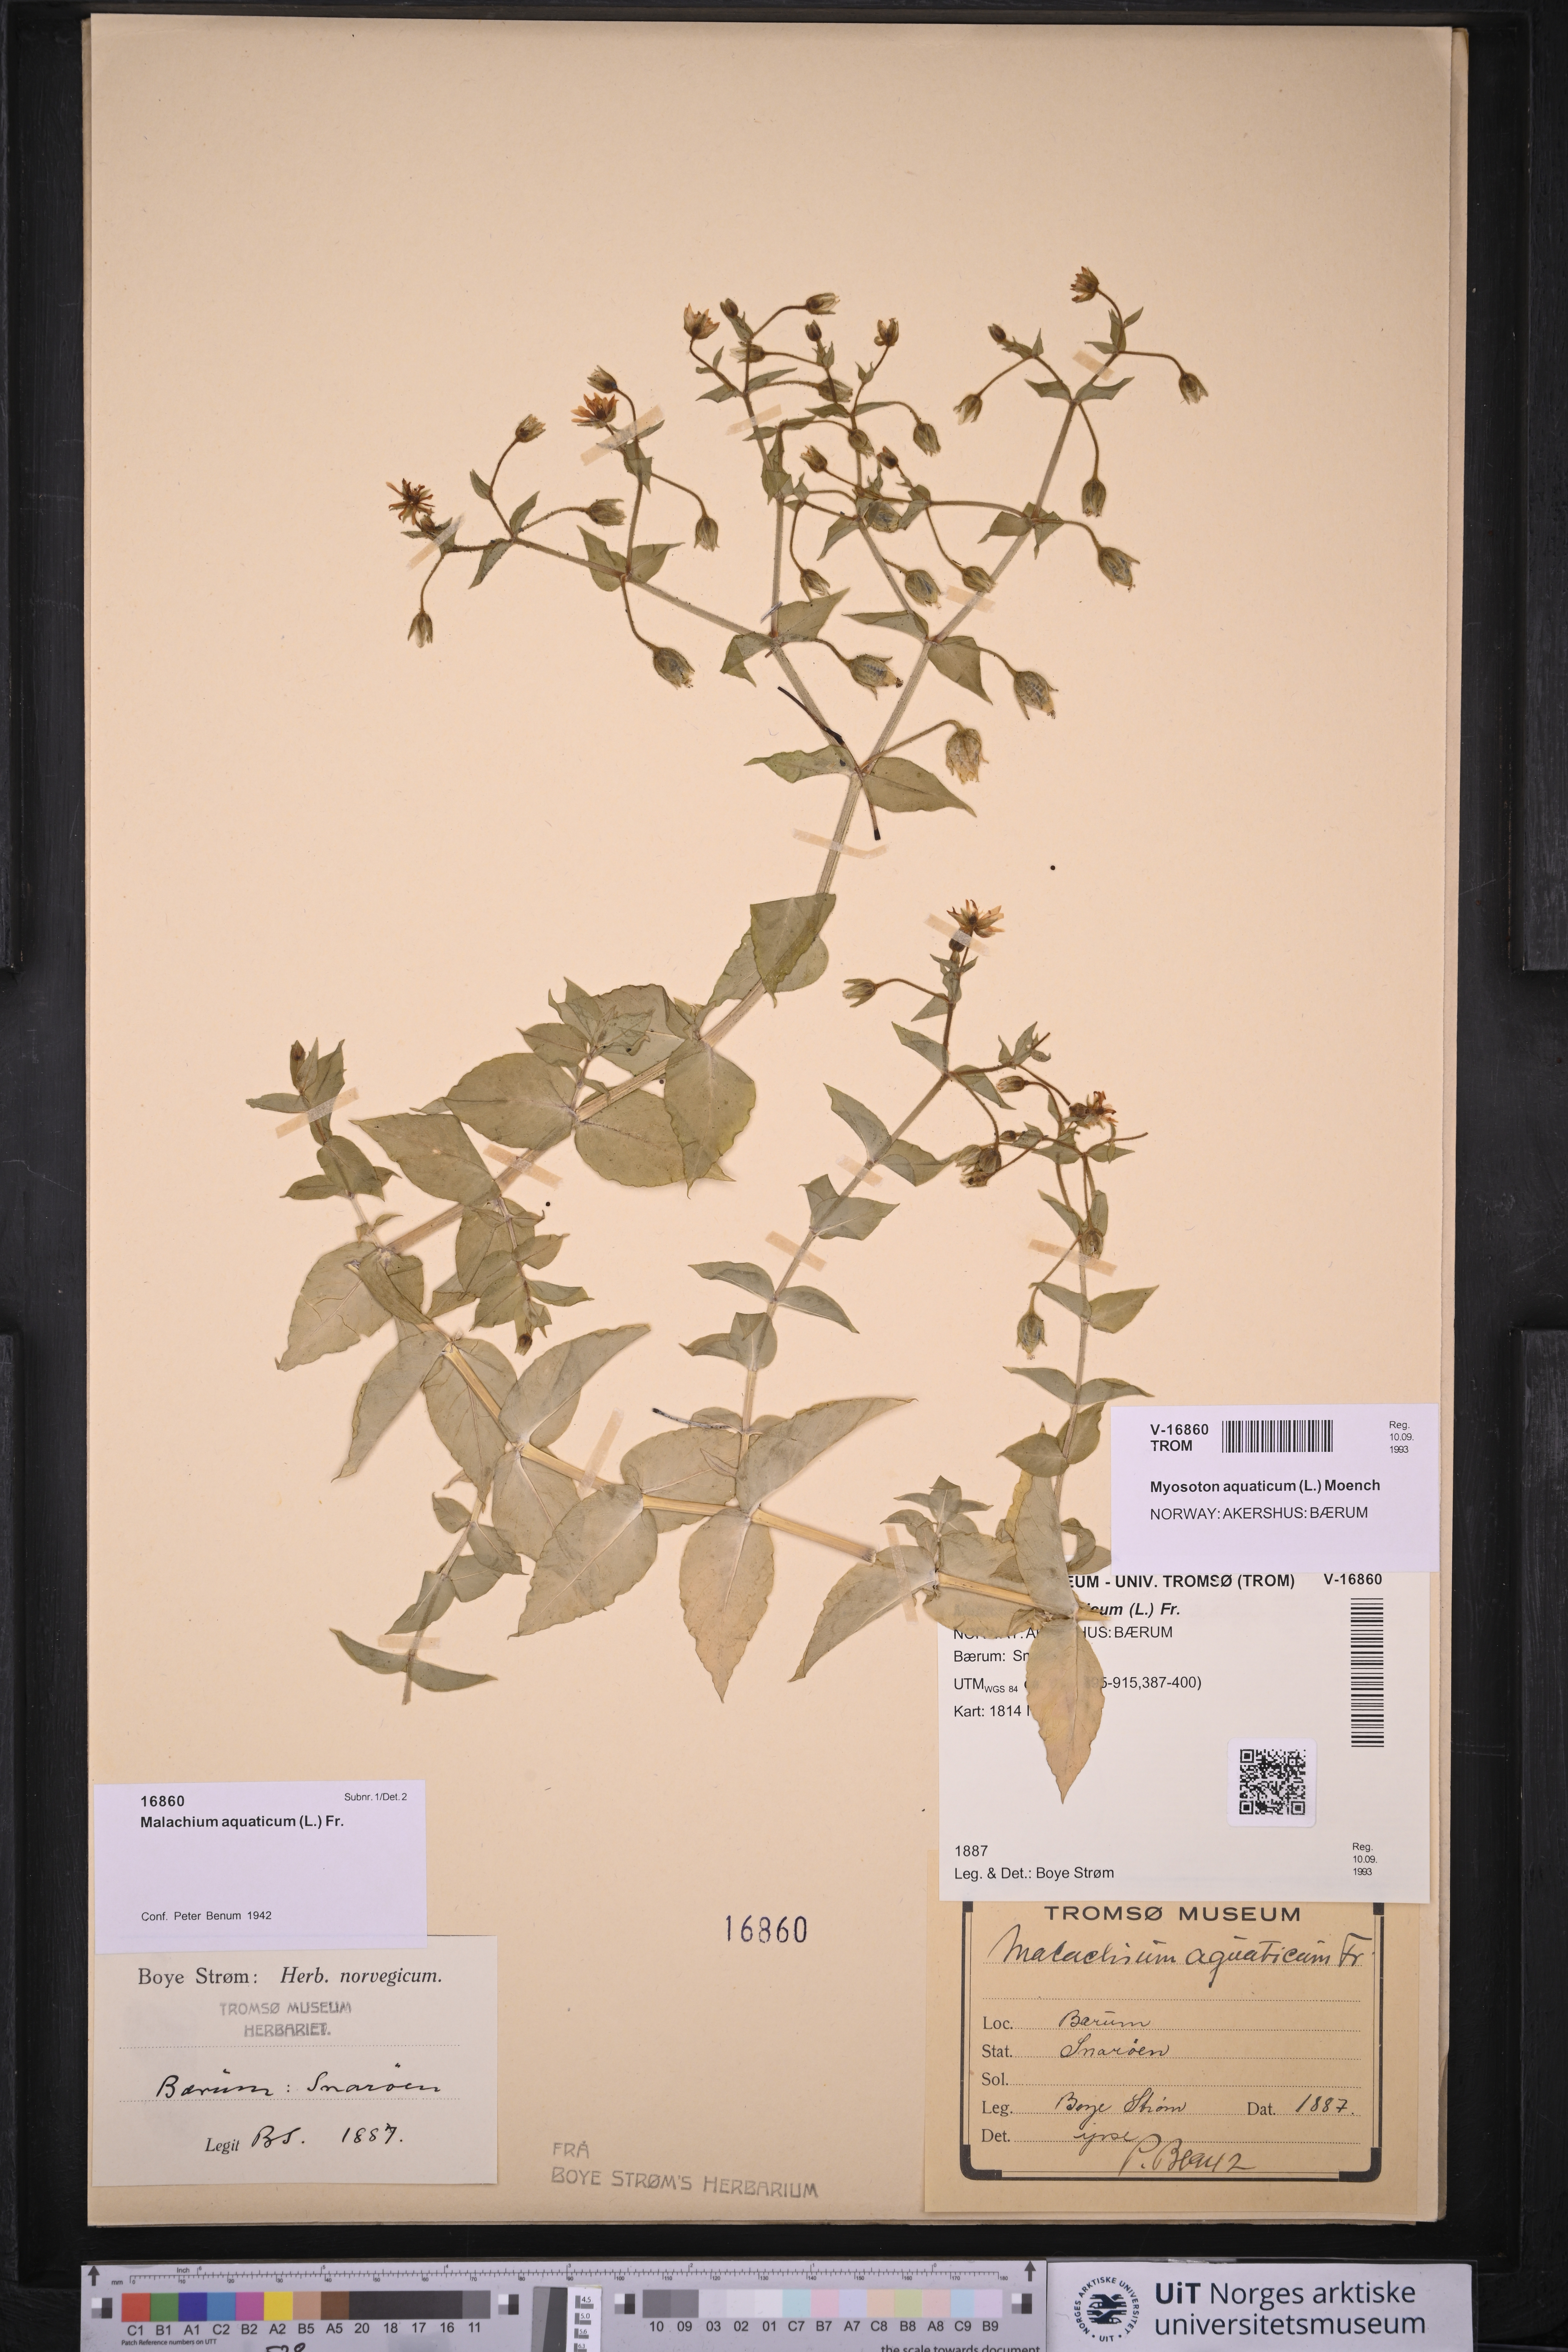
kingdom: Plantae
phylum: Tracheophyta
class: Magnoliopsida
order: Caryophyllales
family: Caryophyllaceae
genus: Stellaria
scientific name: Stellaria aquatica
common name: Water chickweed
